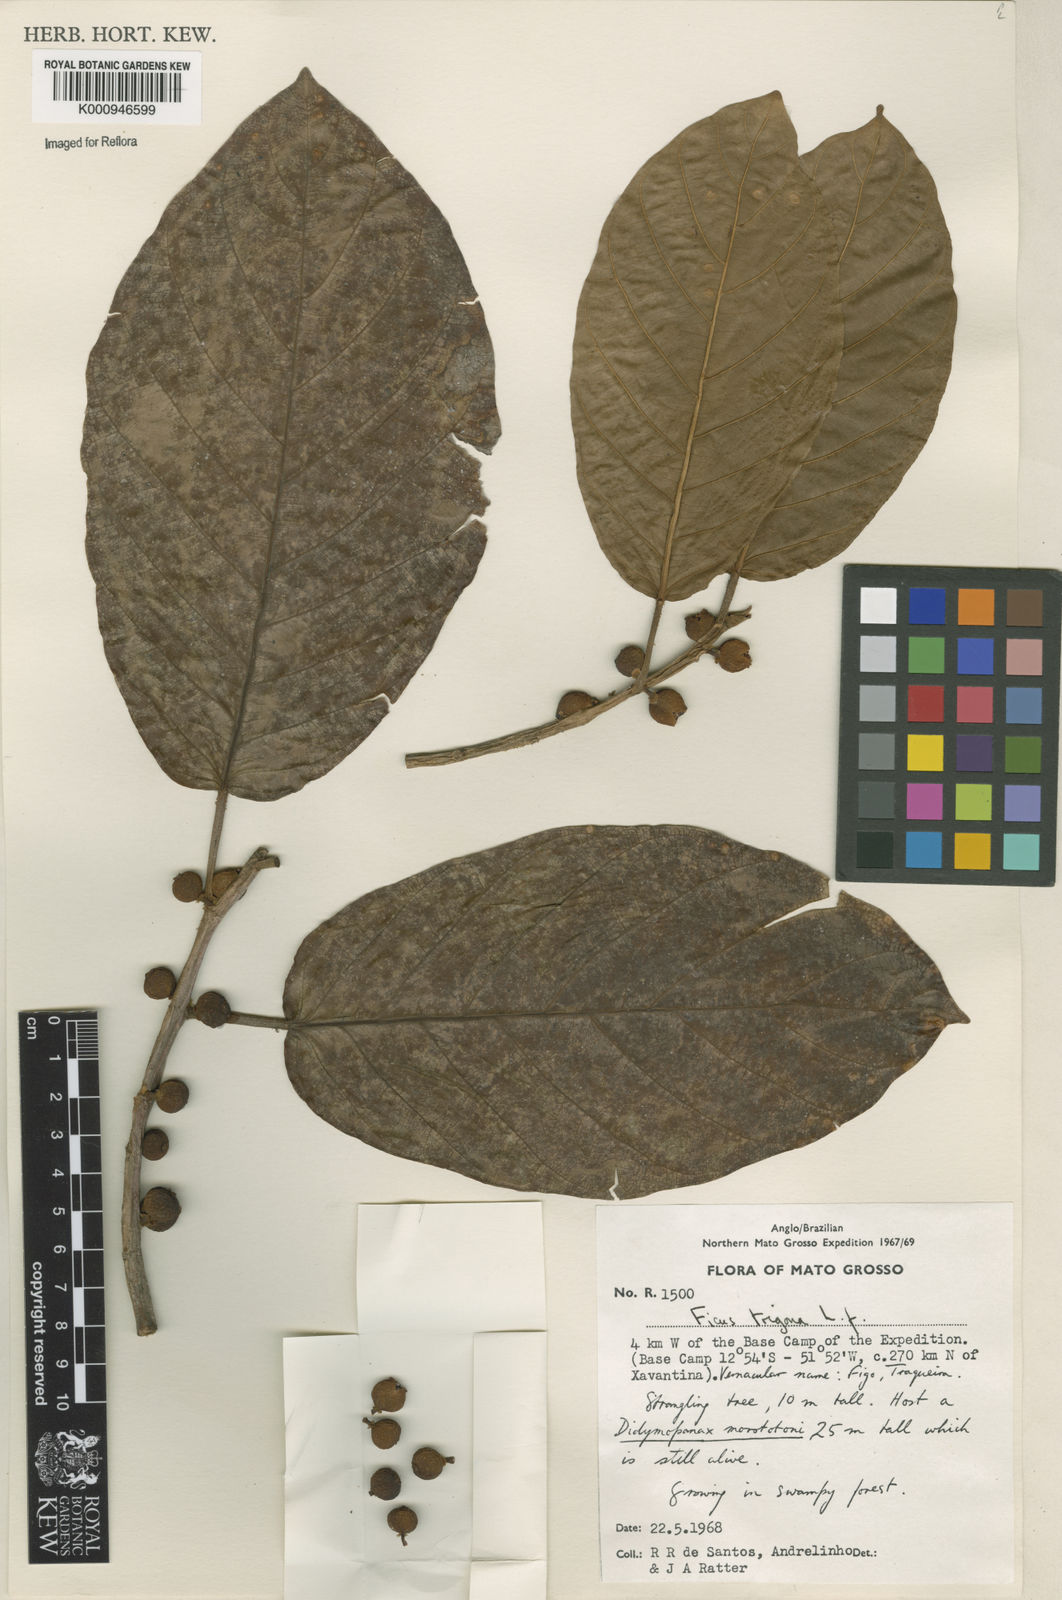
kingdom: Plantae
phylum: Tracheophyta
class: Magnoliopsida
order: Rosales
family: Moraceae
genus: Ficus
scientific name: Ficus trigona
